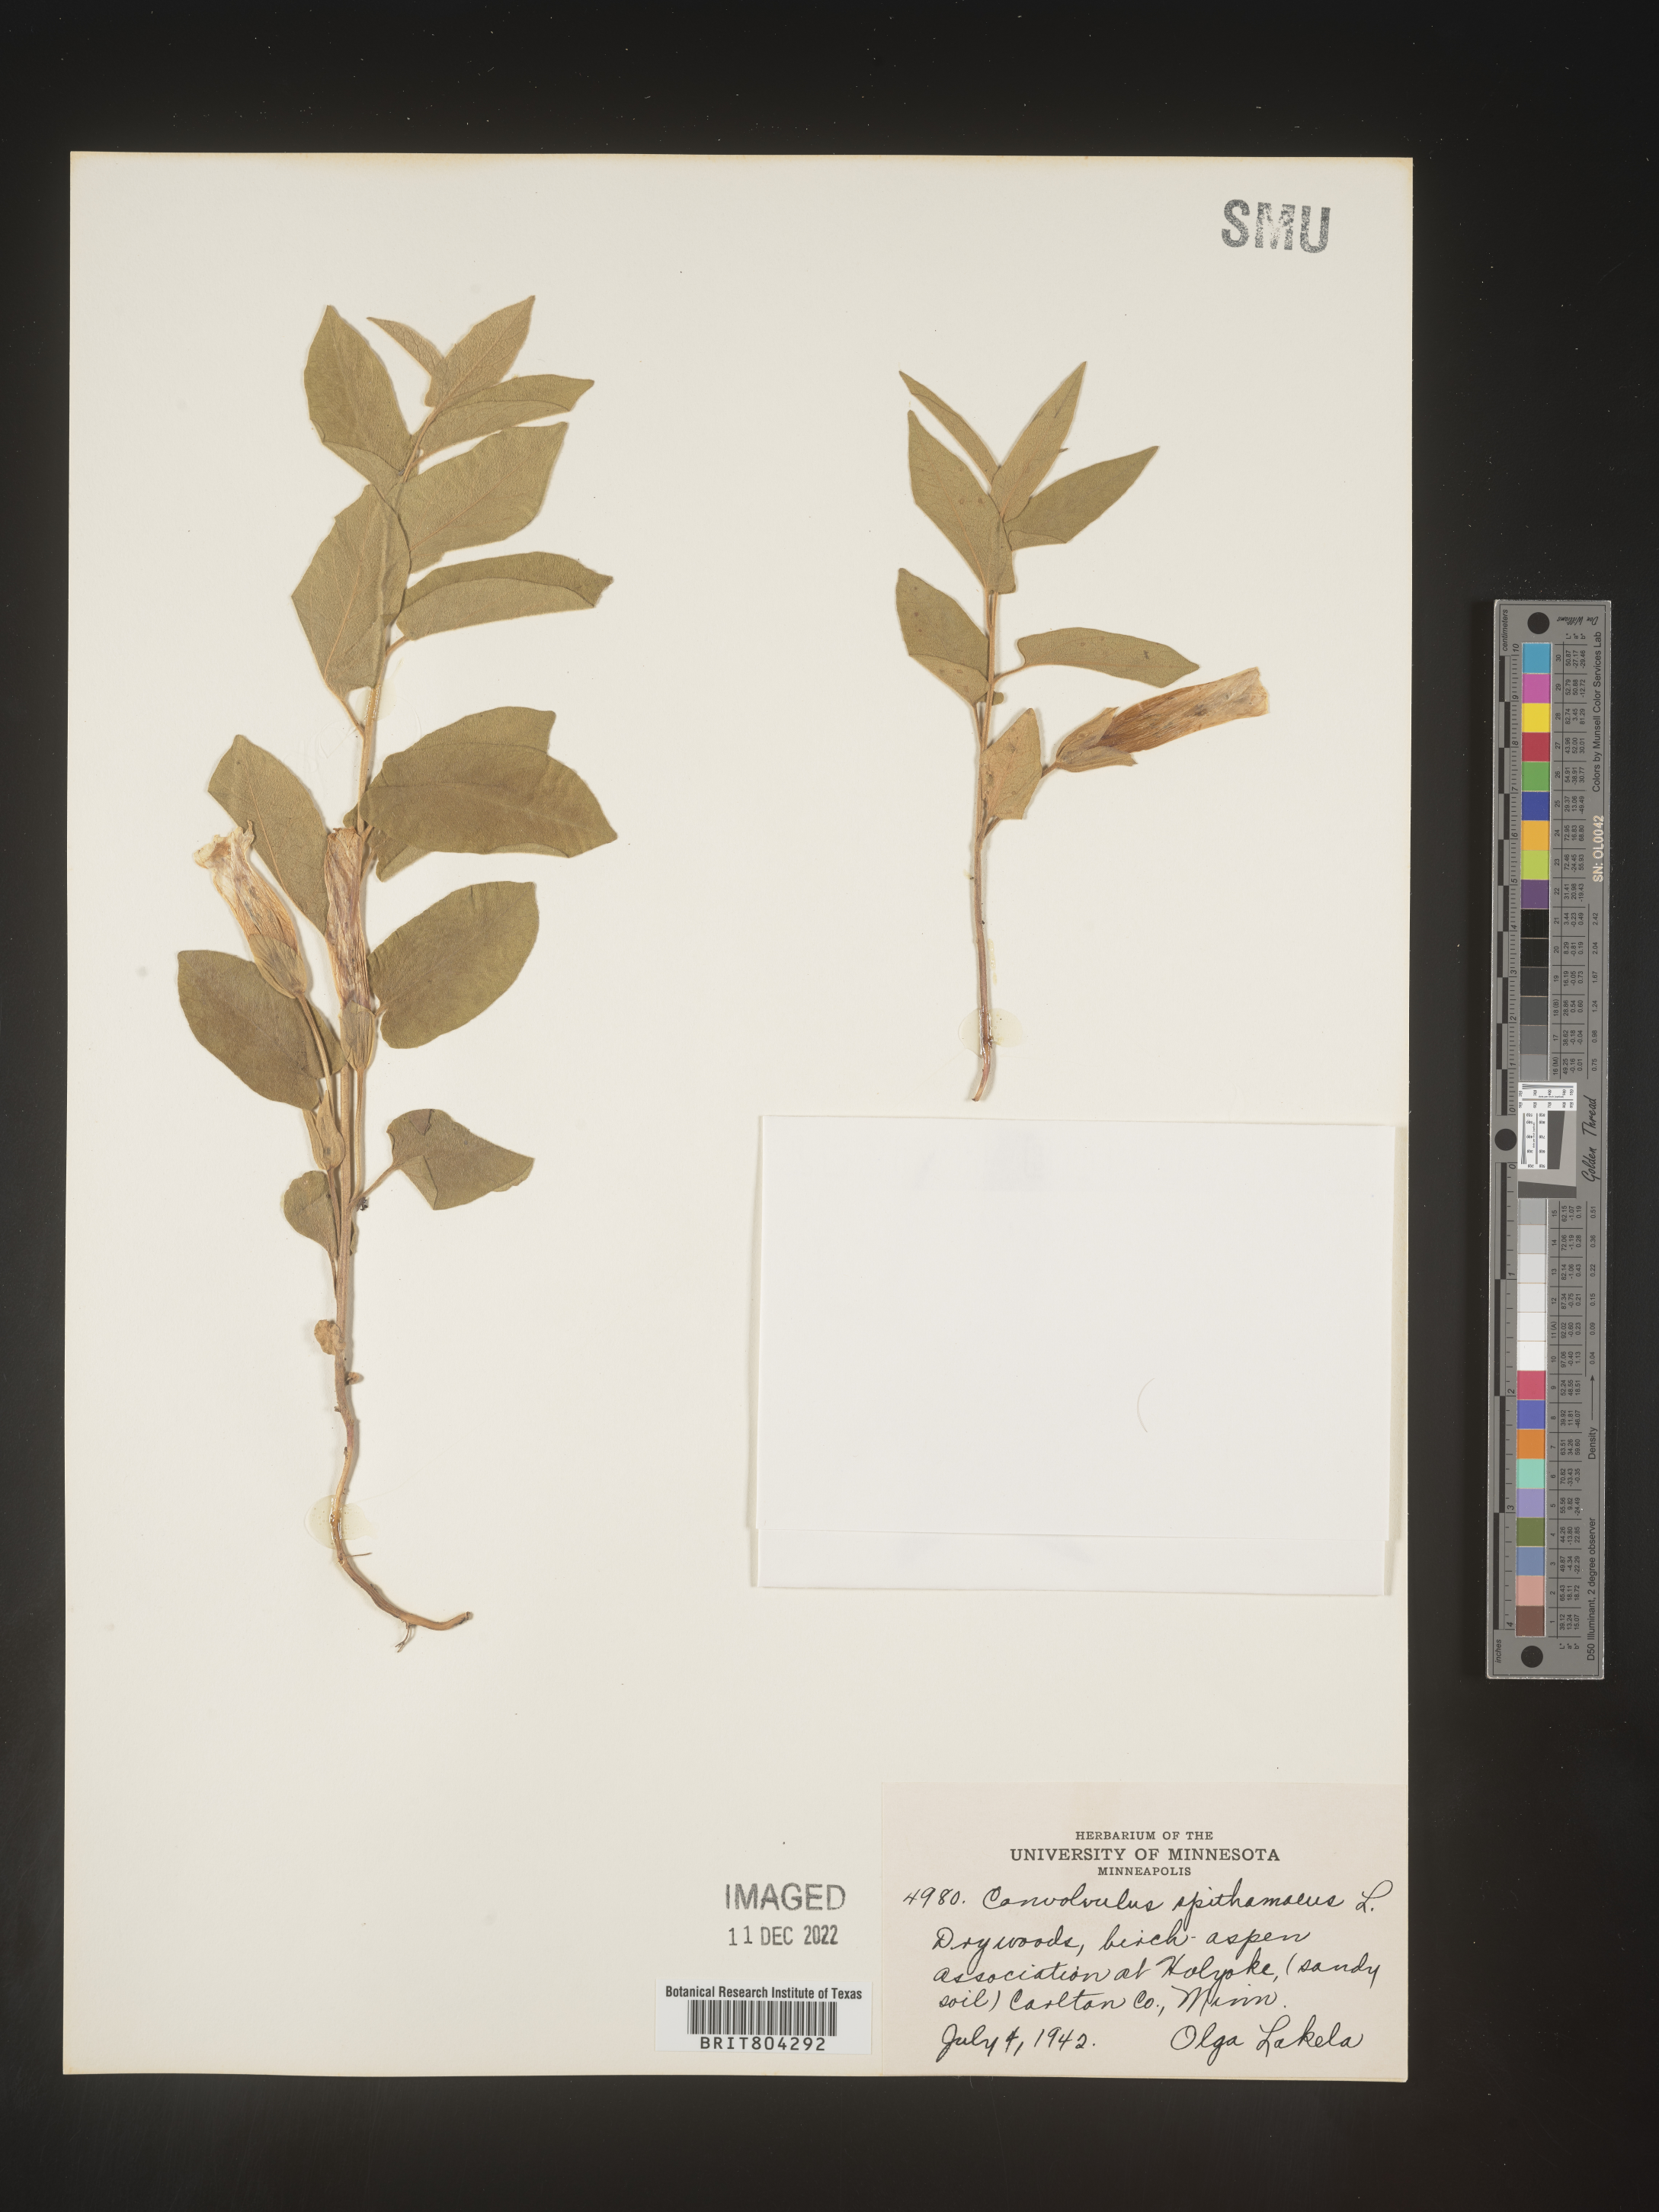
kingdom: Plantae
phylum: Tracheophyta
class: Magnoliopsida
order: Solanales
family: Convolvulaceae
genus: Calystegia
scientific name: Calystegia
